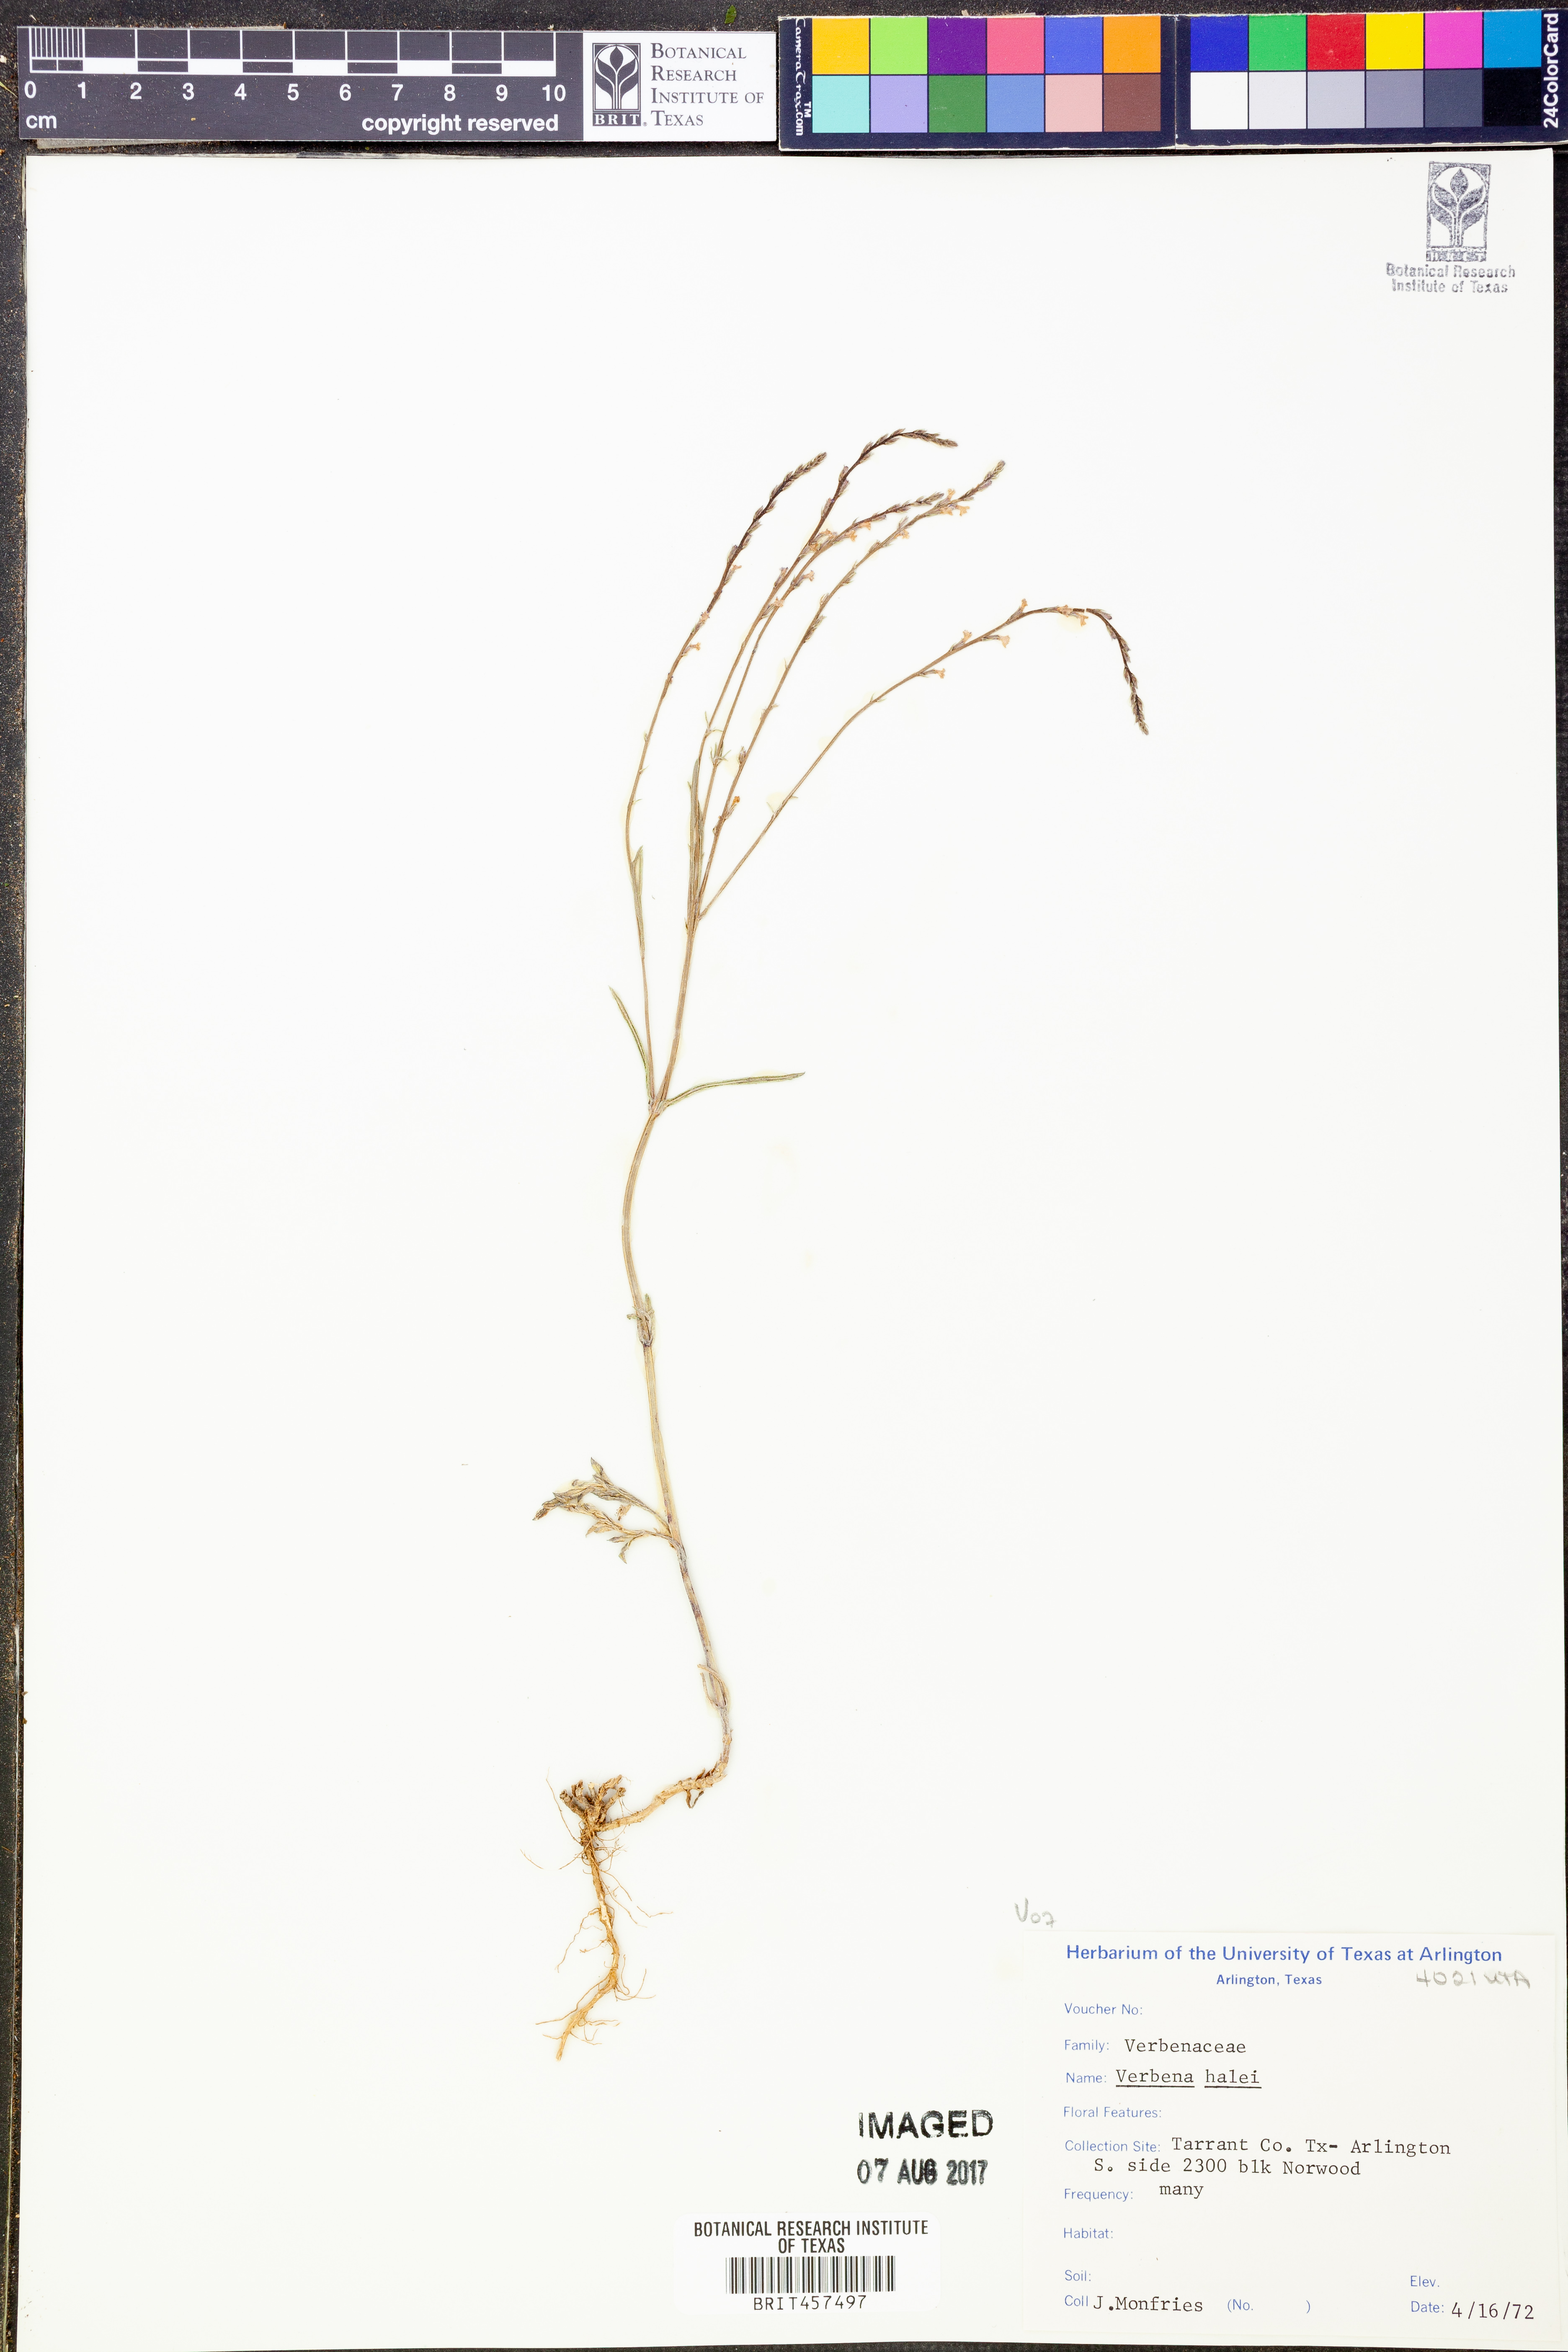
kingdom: Plantae
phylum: Tracheophyta
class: Magnoliopsida
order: Lamiales
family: Verbenaceae
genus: Verbena
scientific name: Verbena halei
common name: Texas vervain
